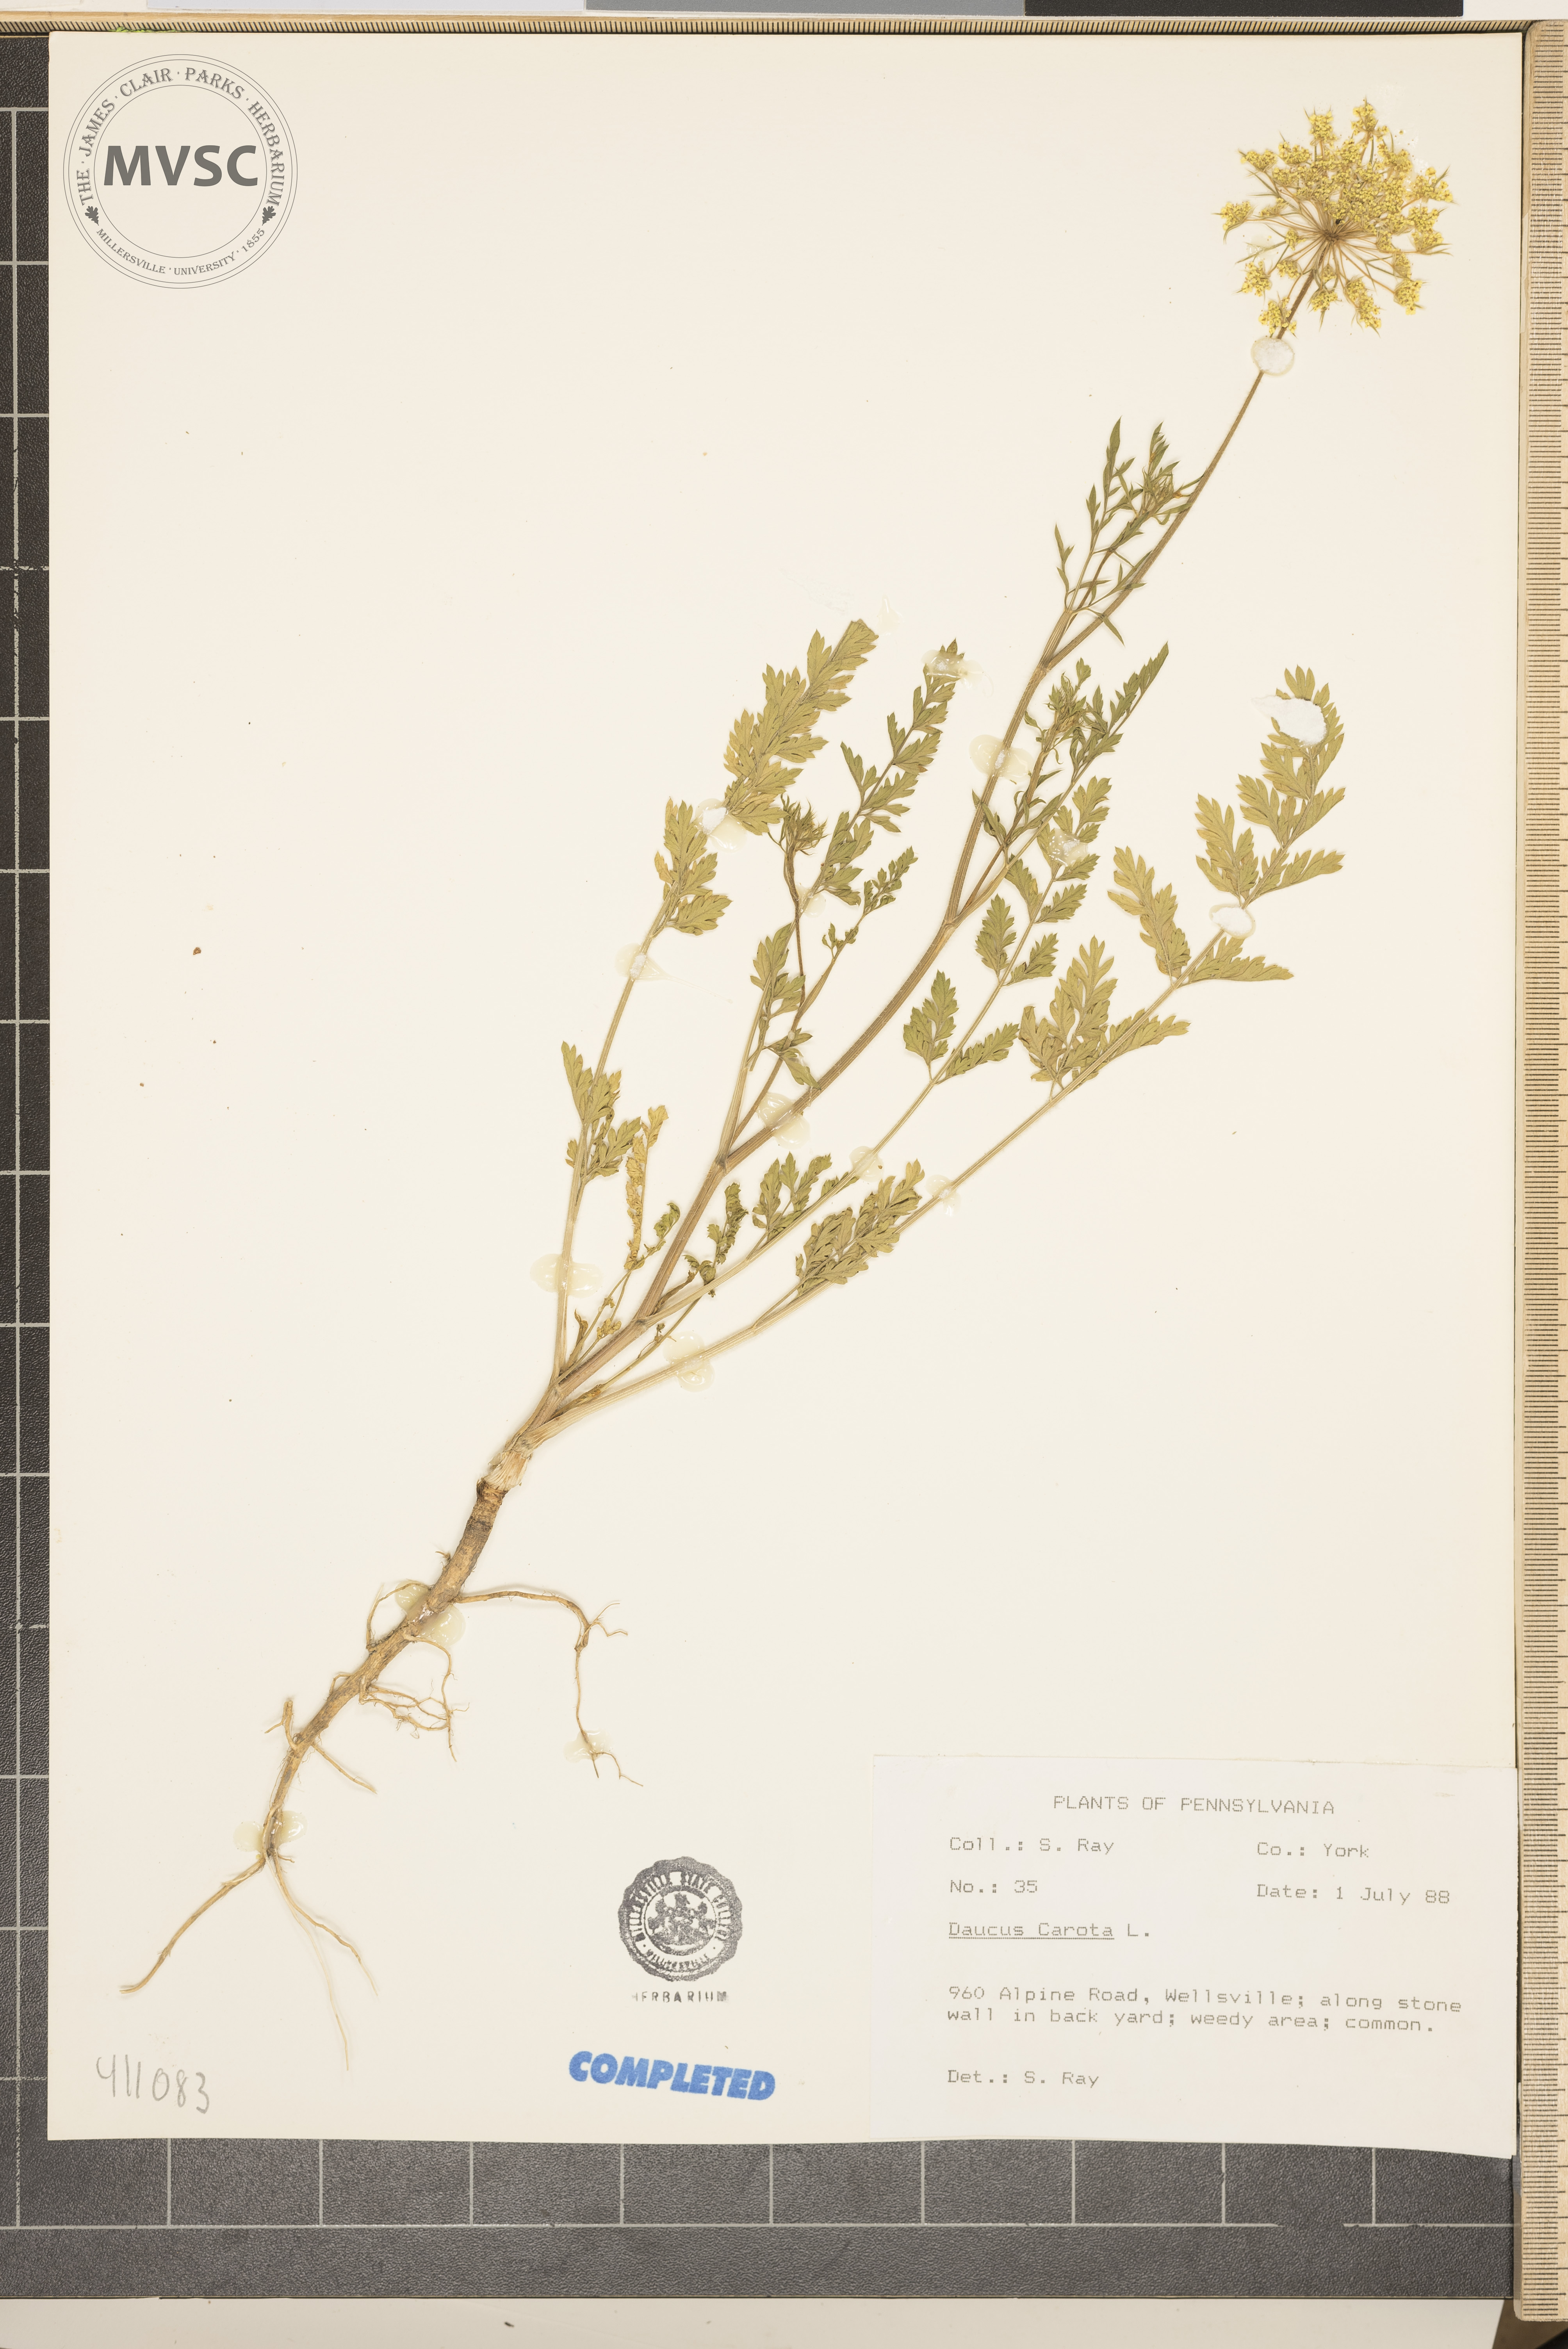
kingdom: Plantae
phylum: Tracheophyta
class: Magnoliopsida
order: Apiales
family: Apiaceae
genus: Daucus
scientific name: Daucus carota
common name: Wild carrot
